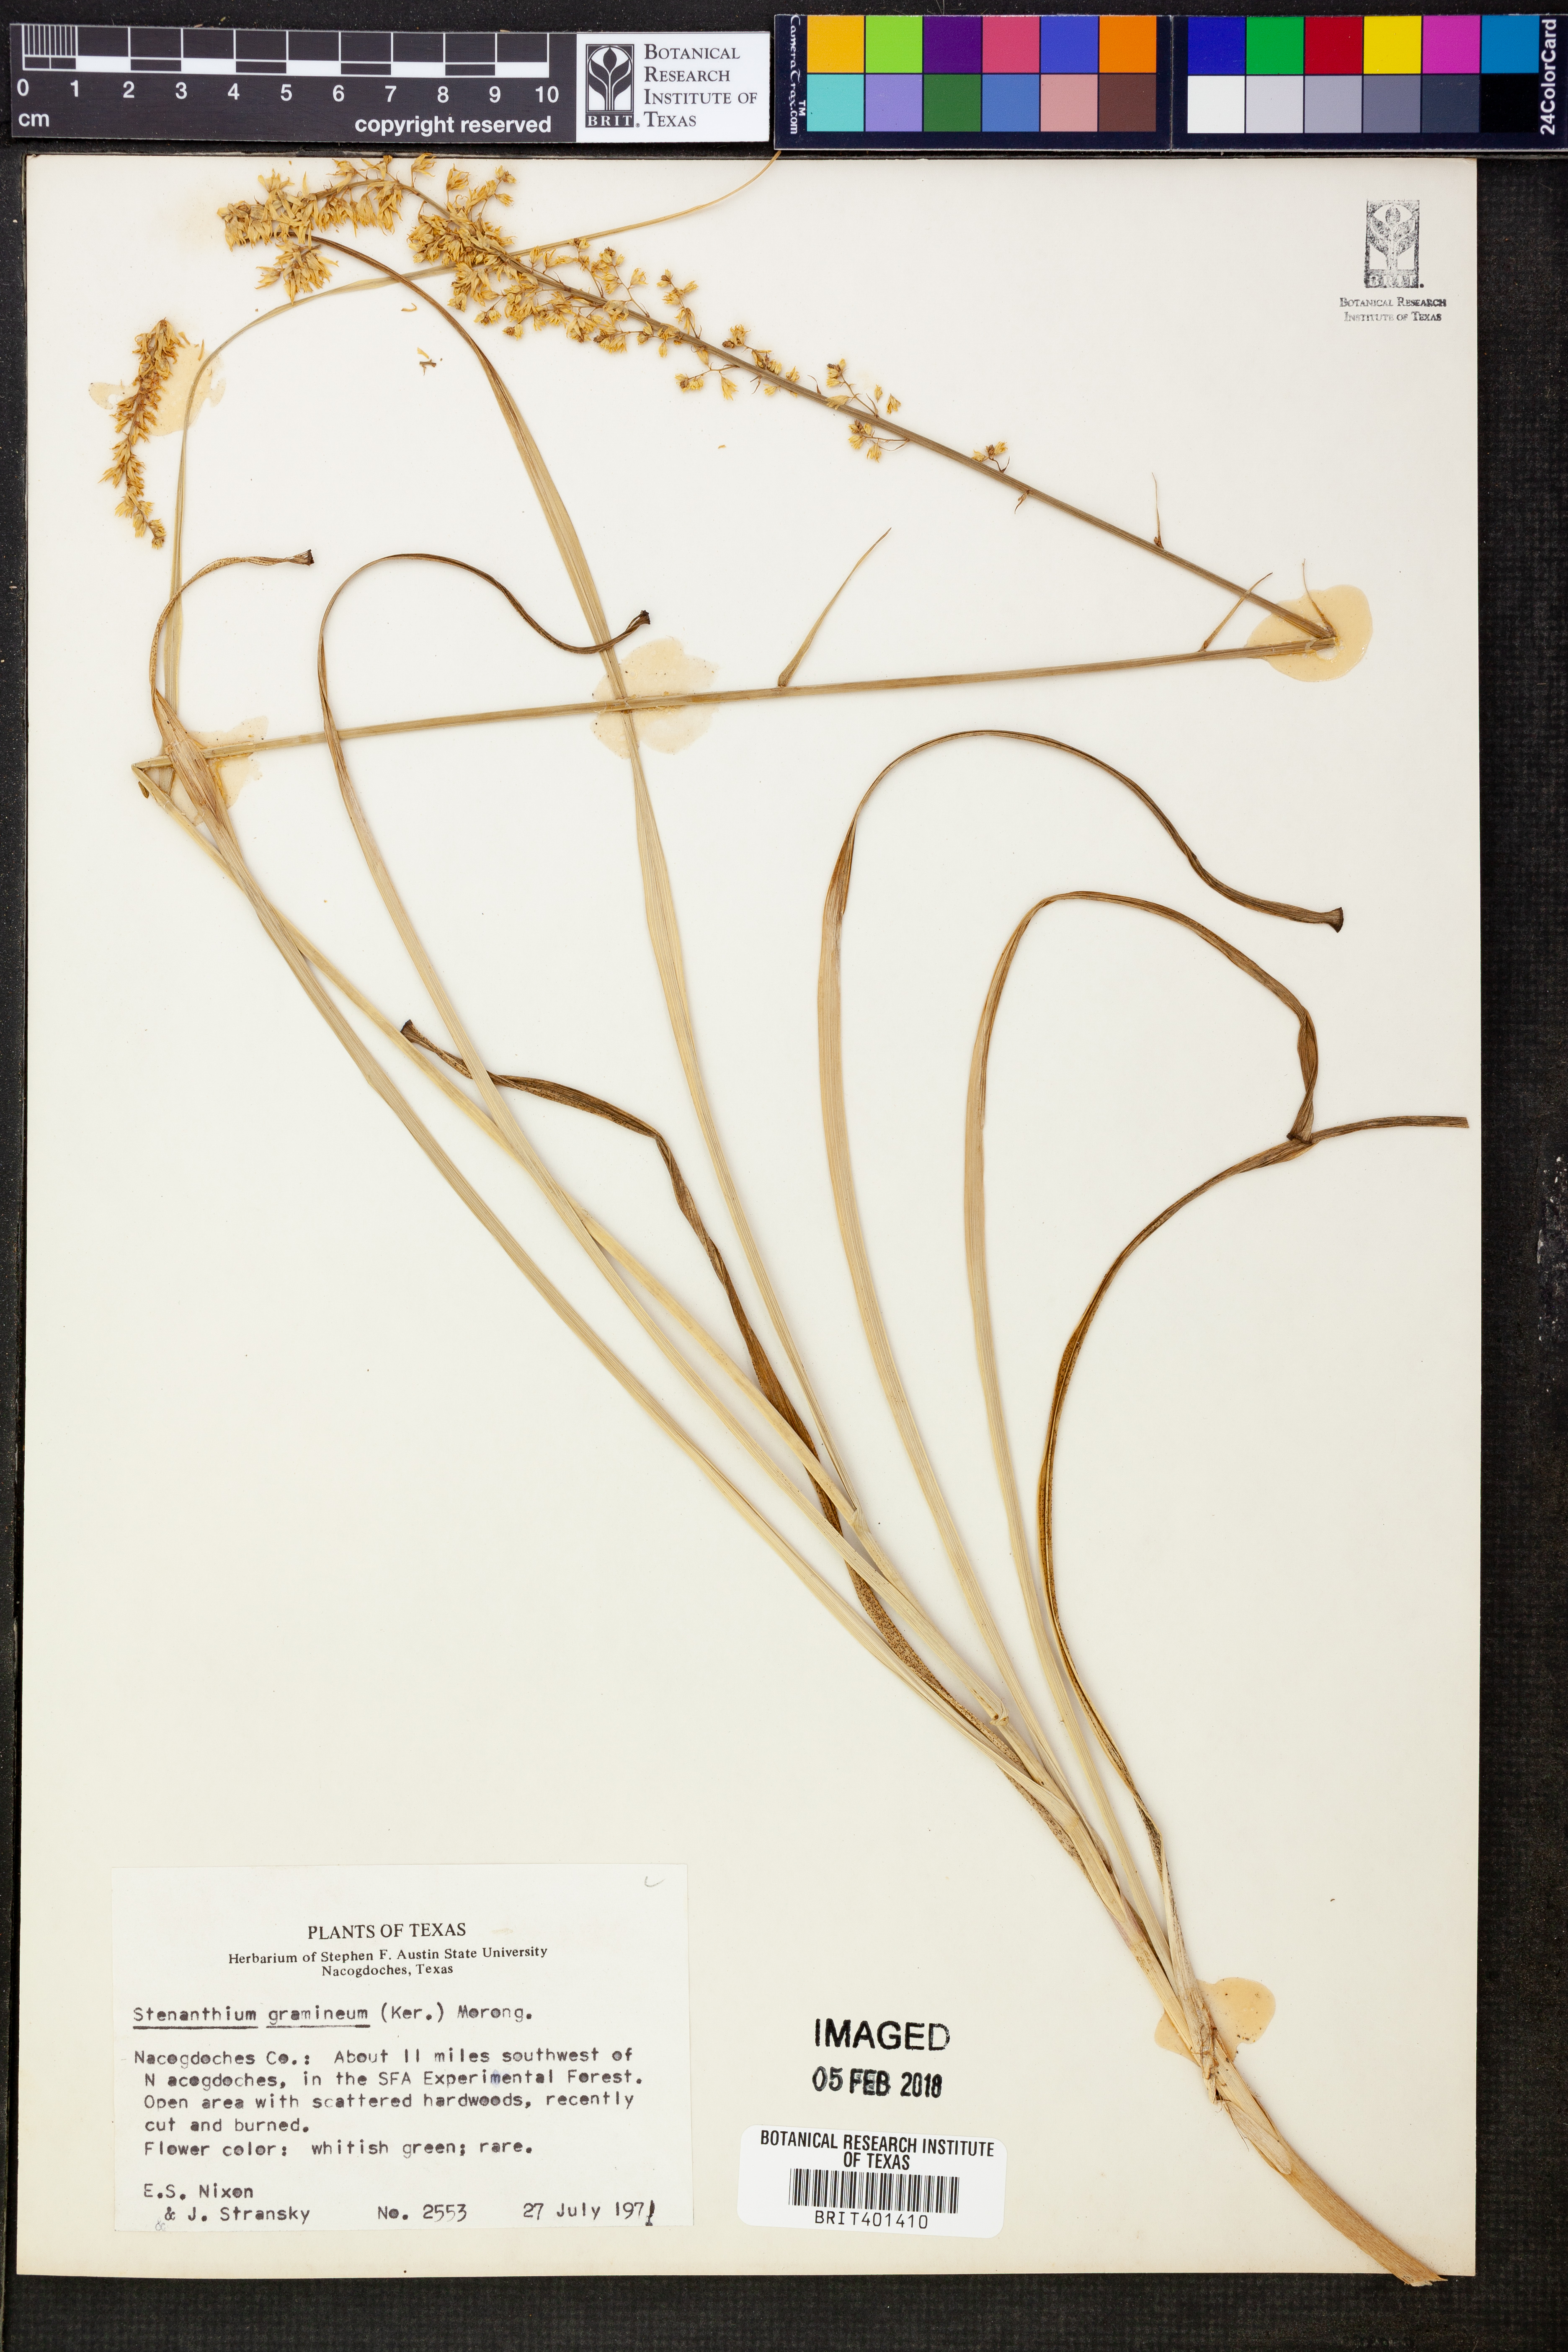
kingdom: Plantae
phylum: Tracheophyta
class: Liliopsida
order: Liliales
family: Melanthiaceae
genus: Stenanthium
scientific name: Stenanthium gramineum
